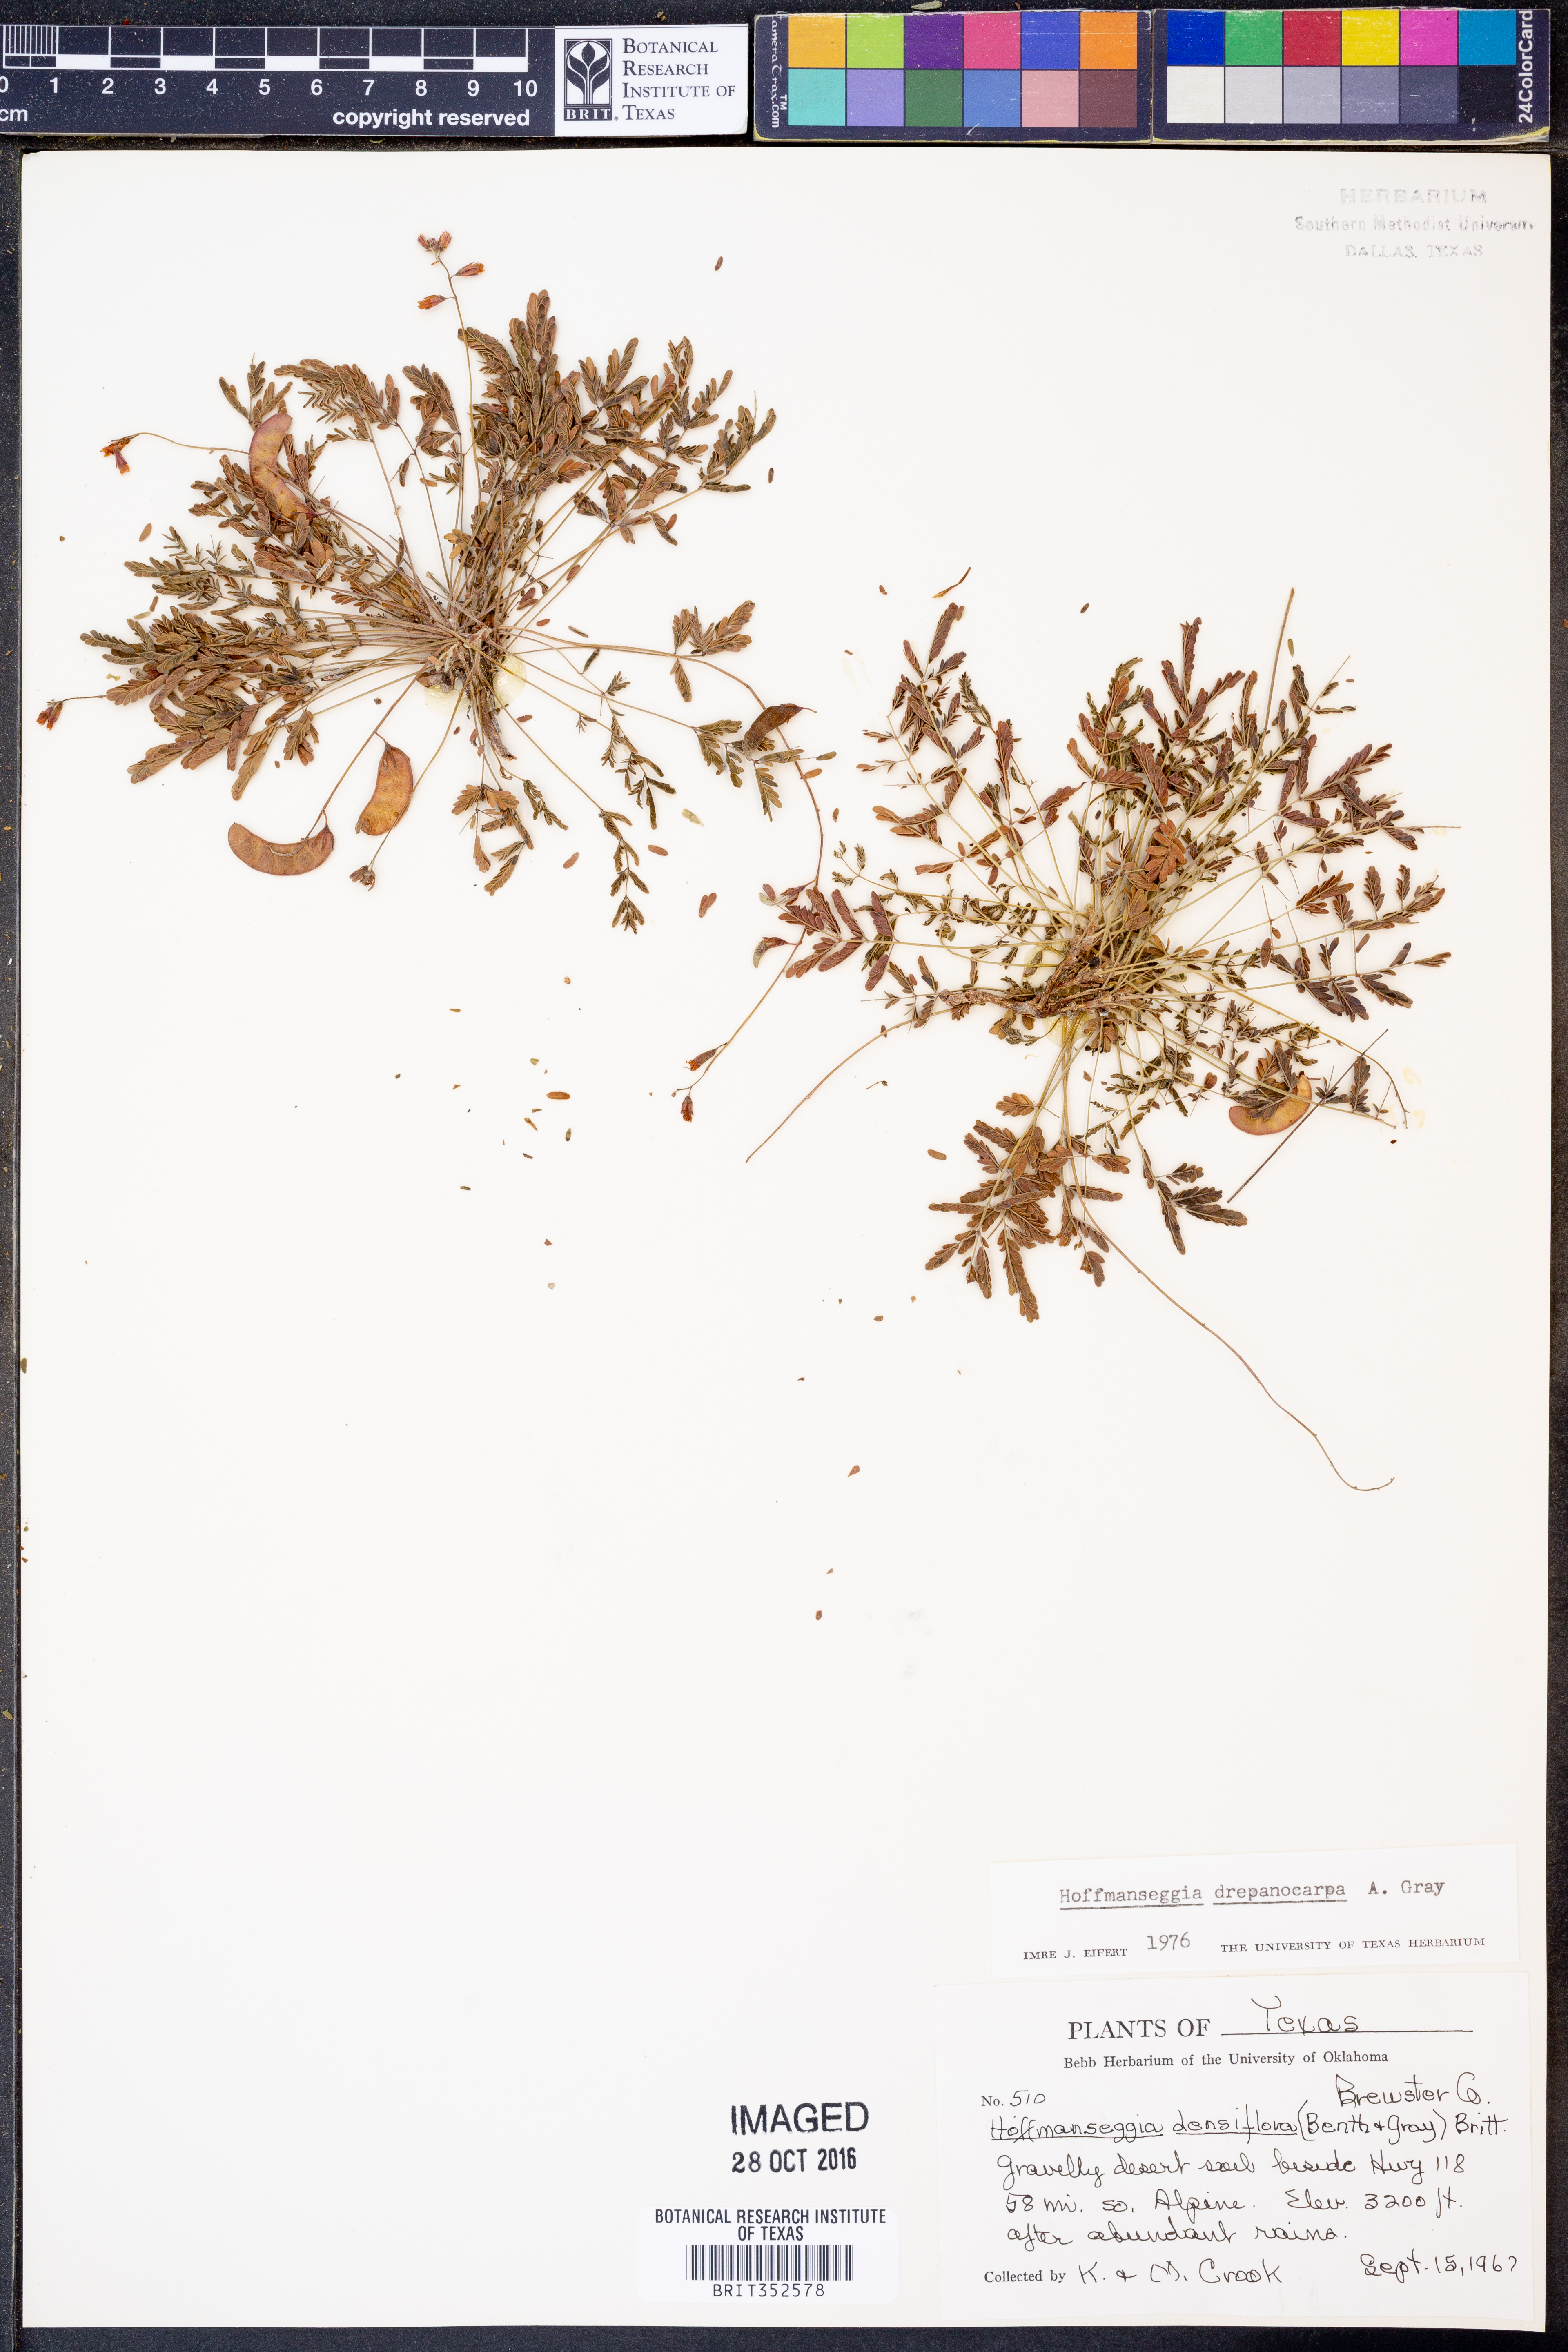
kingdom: Plantae
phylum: Tracheophyta
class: Magnoliopsida
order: Fabales
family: Fabaceae
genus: Hoffmannseggia
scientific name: Hoffmannseggia drepanocarpa
